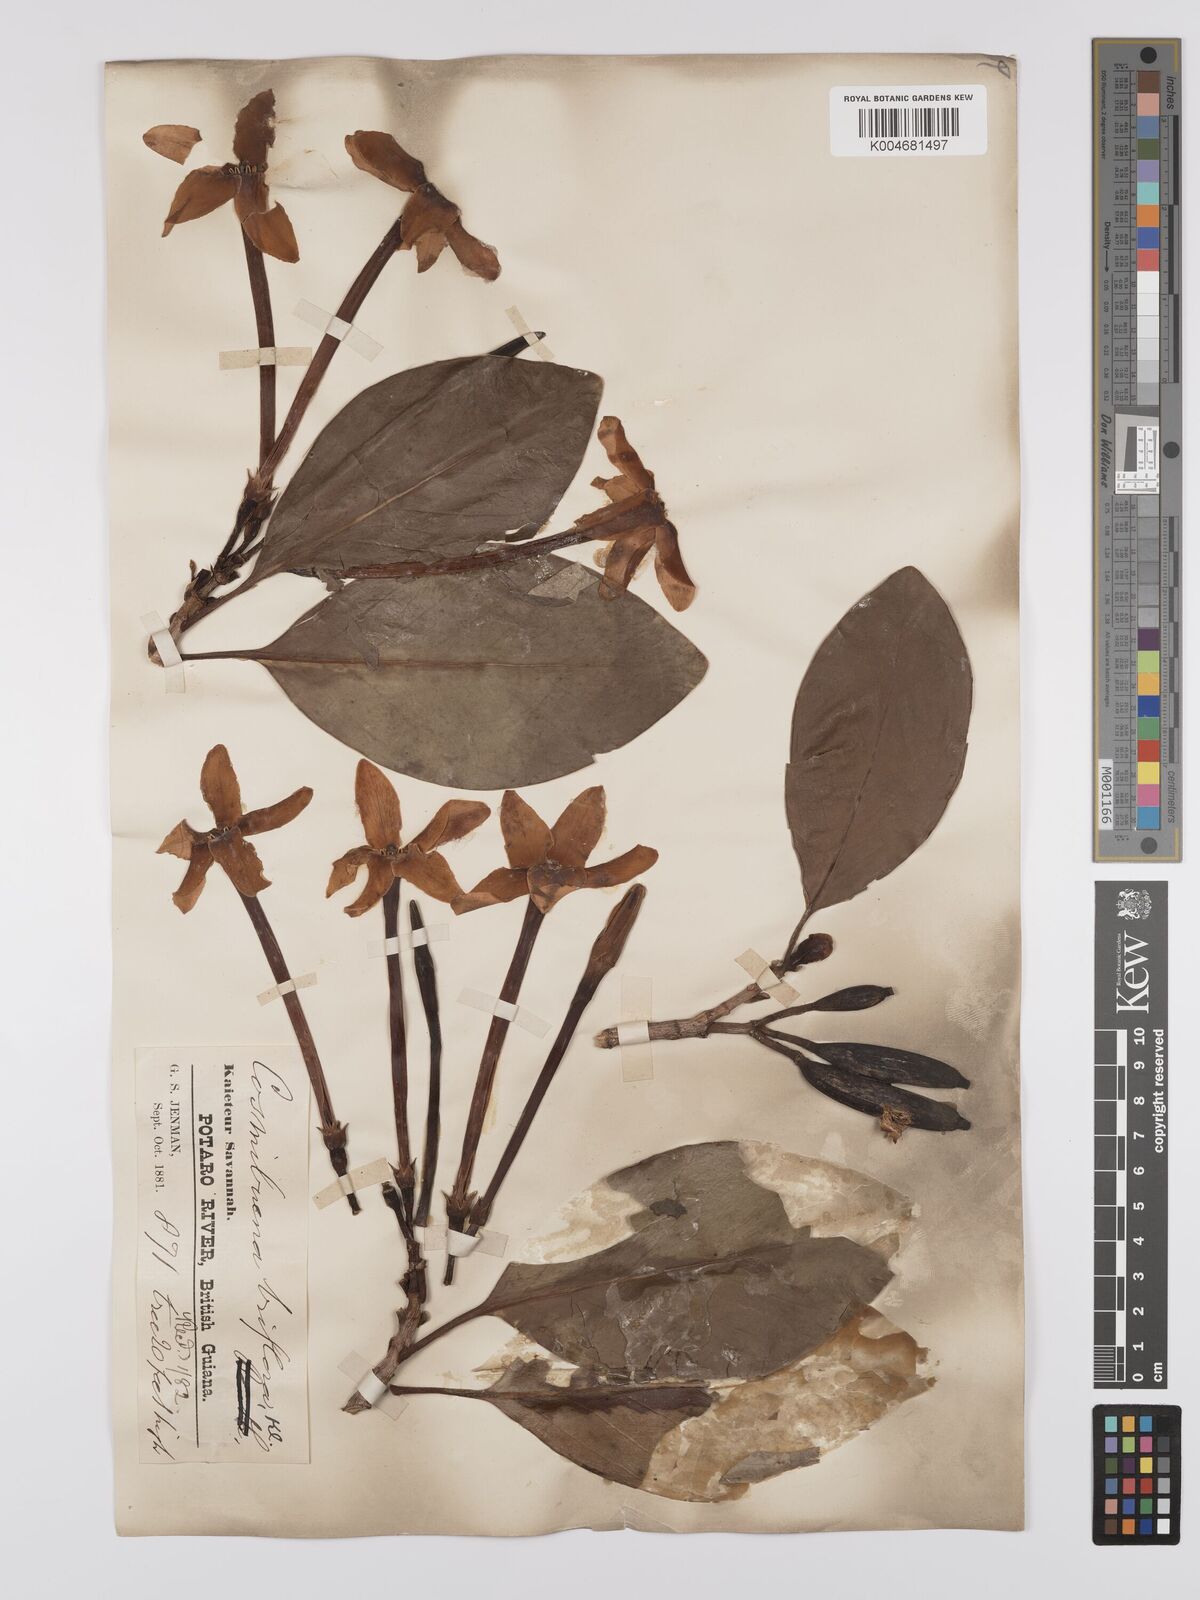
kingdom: Plantae
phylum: Tracheophyta
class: Magnoliopsida
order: Gentianales
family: Rubiaceae
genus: Cosmibuena
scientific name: Cosmibuena grandiflora
